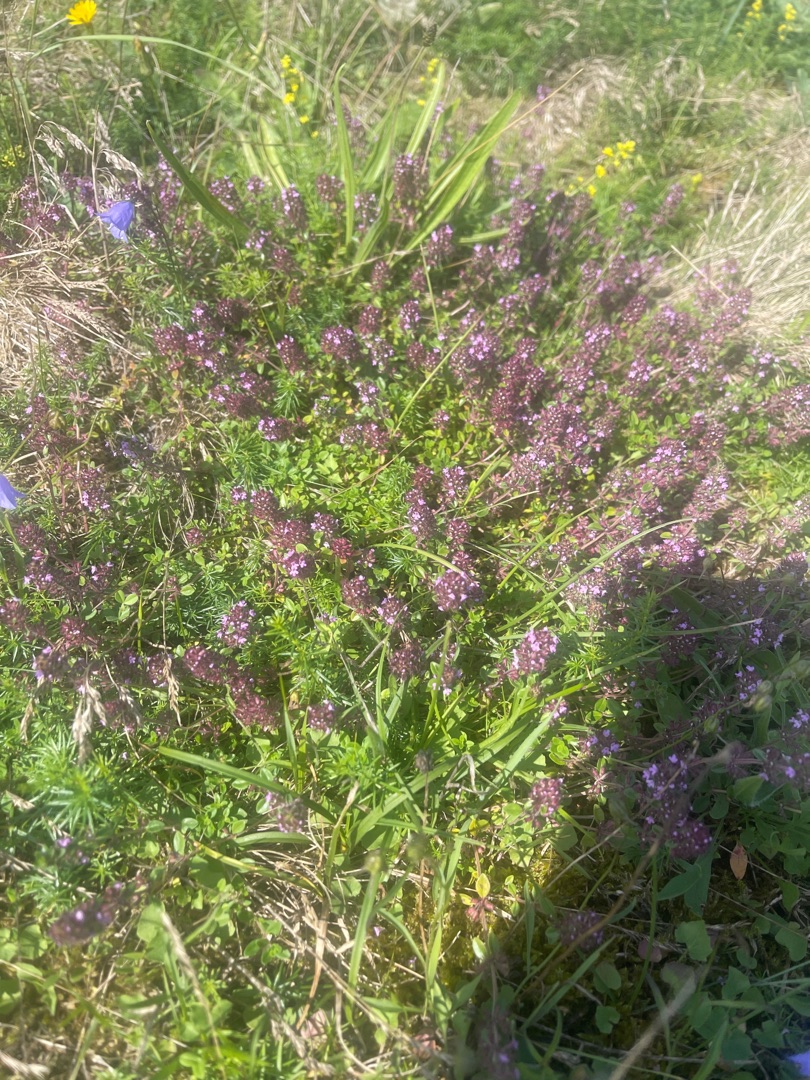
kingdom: Plantae
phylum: Tracheophyta
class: Magnoliopsida
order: Lamiales
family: Lamiaceae
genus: Thymus
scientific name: Thymus pulegioides
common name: Bredbladet timian
